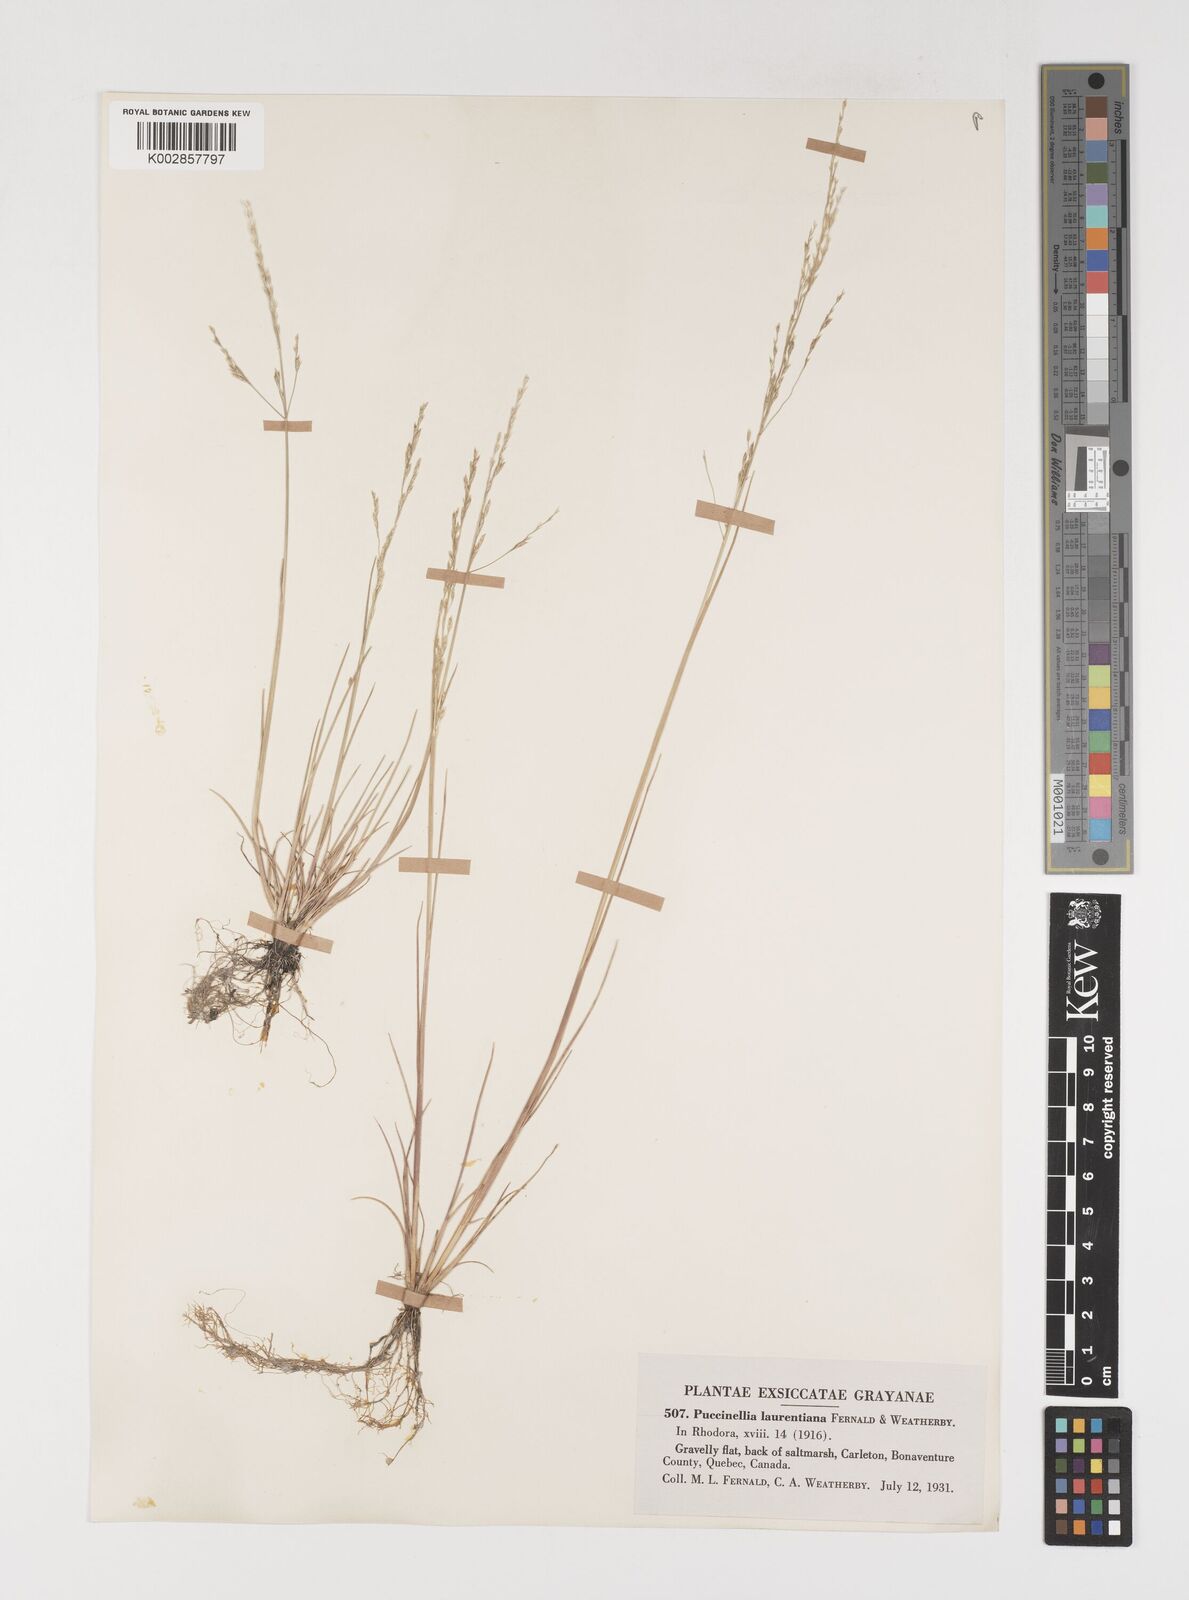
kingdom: Plantae
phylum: Tracheophyta
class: Liliopsida
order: Poales
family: Poaceae
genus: Puccinellia
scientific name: Puccinellia nutkaensis
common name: Nootka alkaligrass
